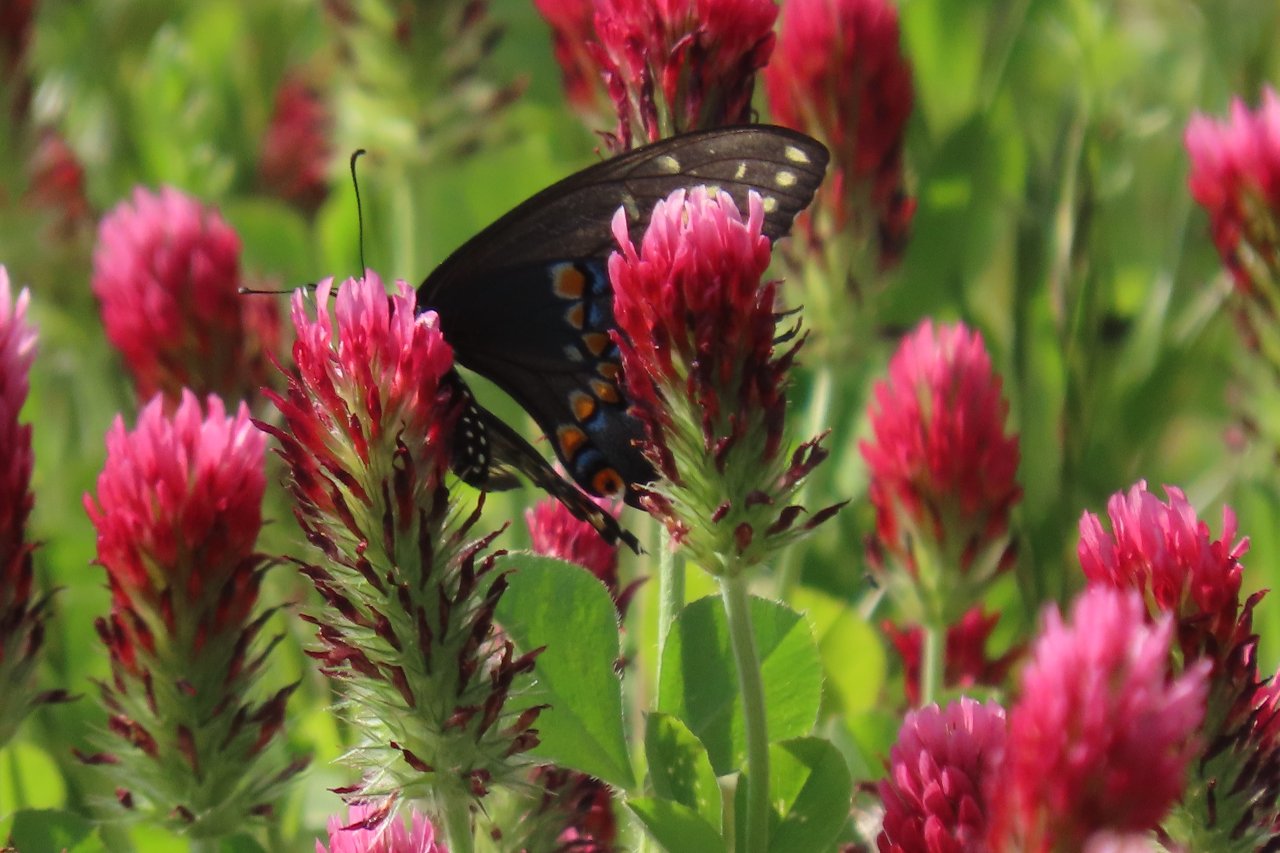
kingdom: Animalia
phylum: Arthropoda
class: Insecta
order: Lepidoptera
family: Papilionidae
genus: Papilio
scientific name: Papilio polyxenes
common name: Black Swallowtail
